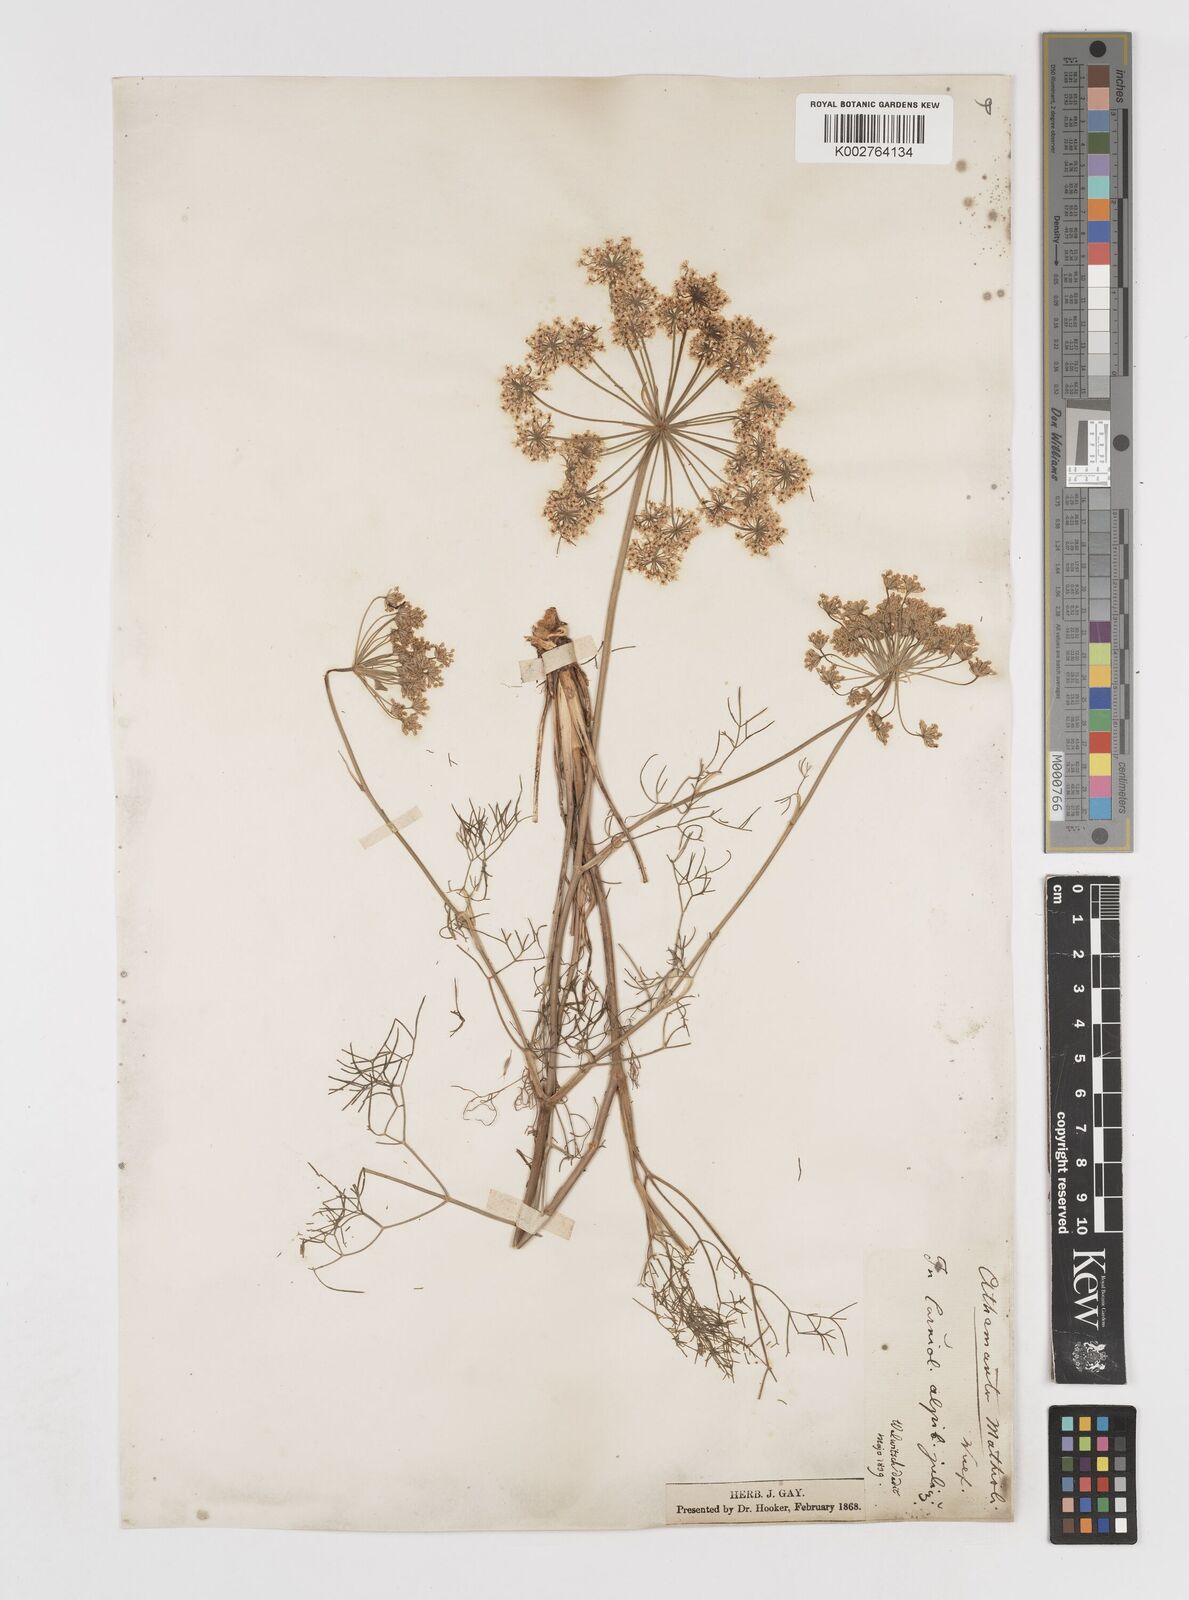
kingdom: Plantae
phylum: Tracheophyta
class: Magnoliopsida
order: Apiales
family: Apiaceae
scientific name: Apiaceae
